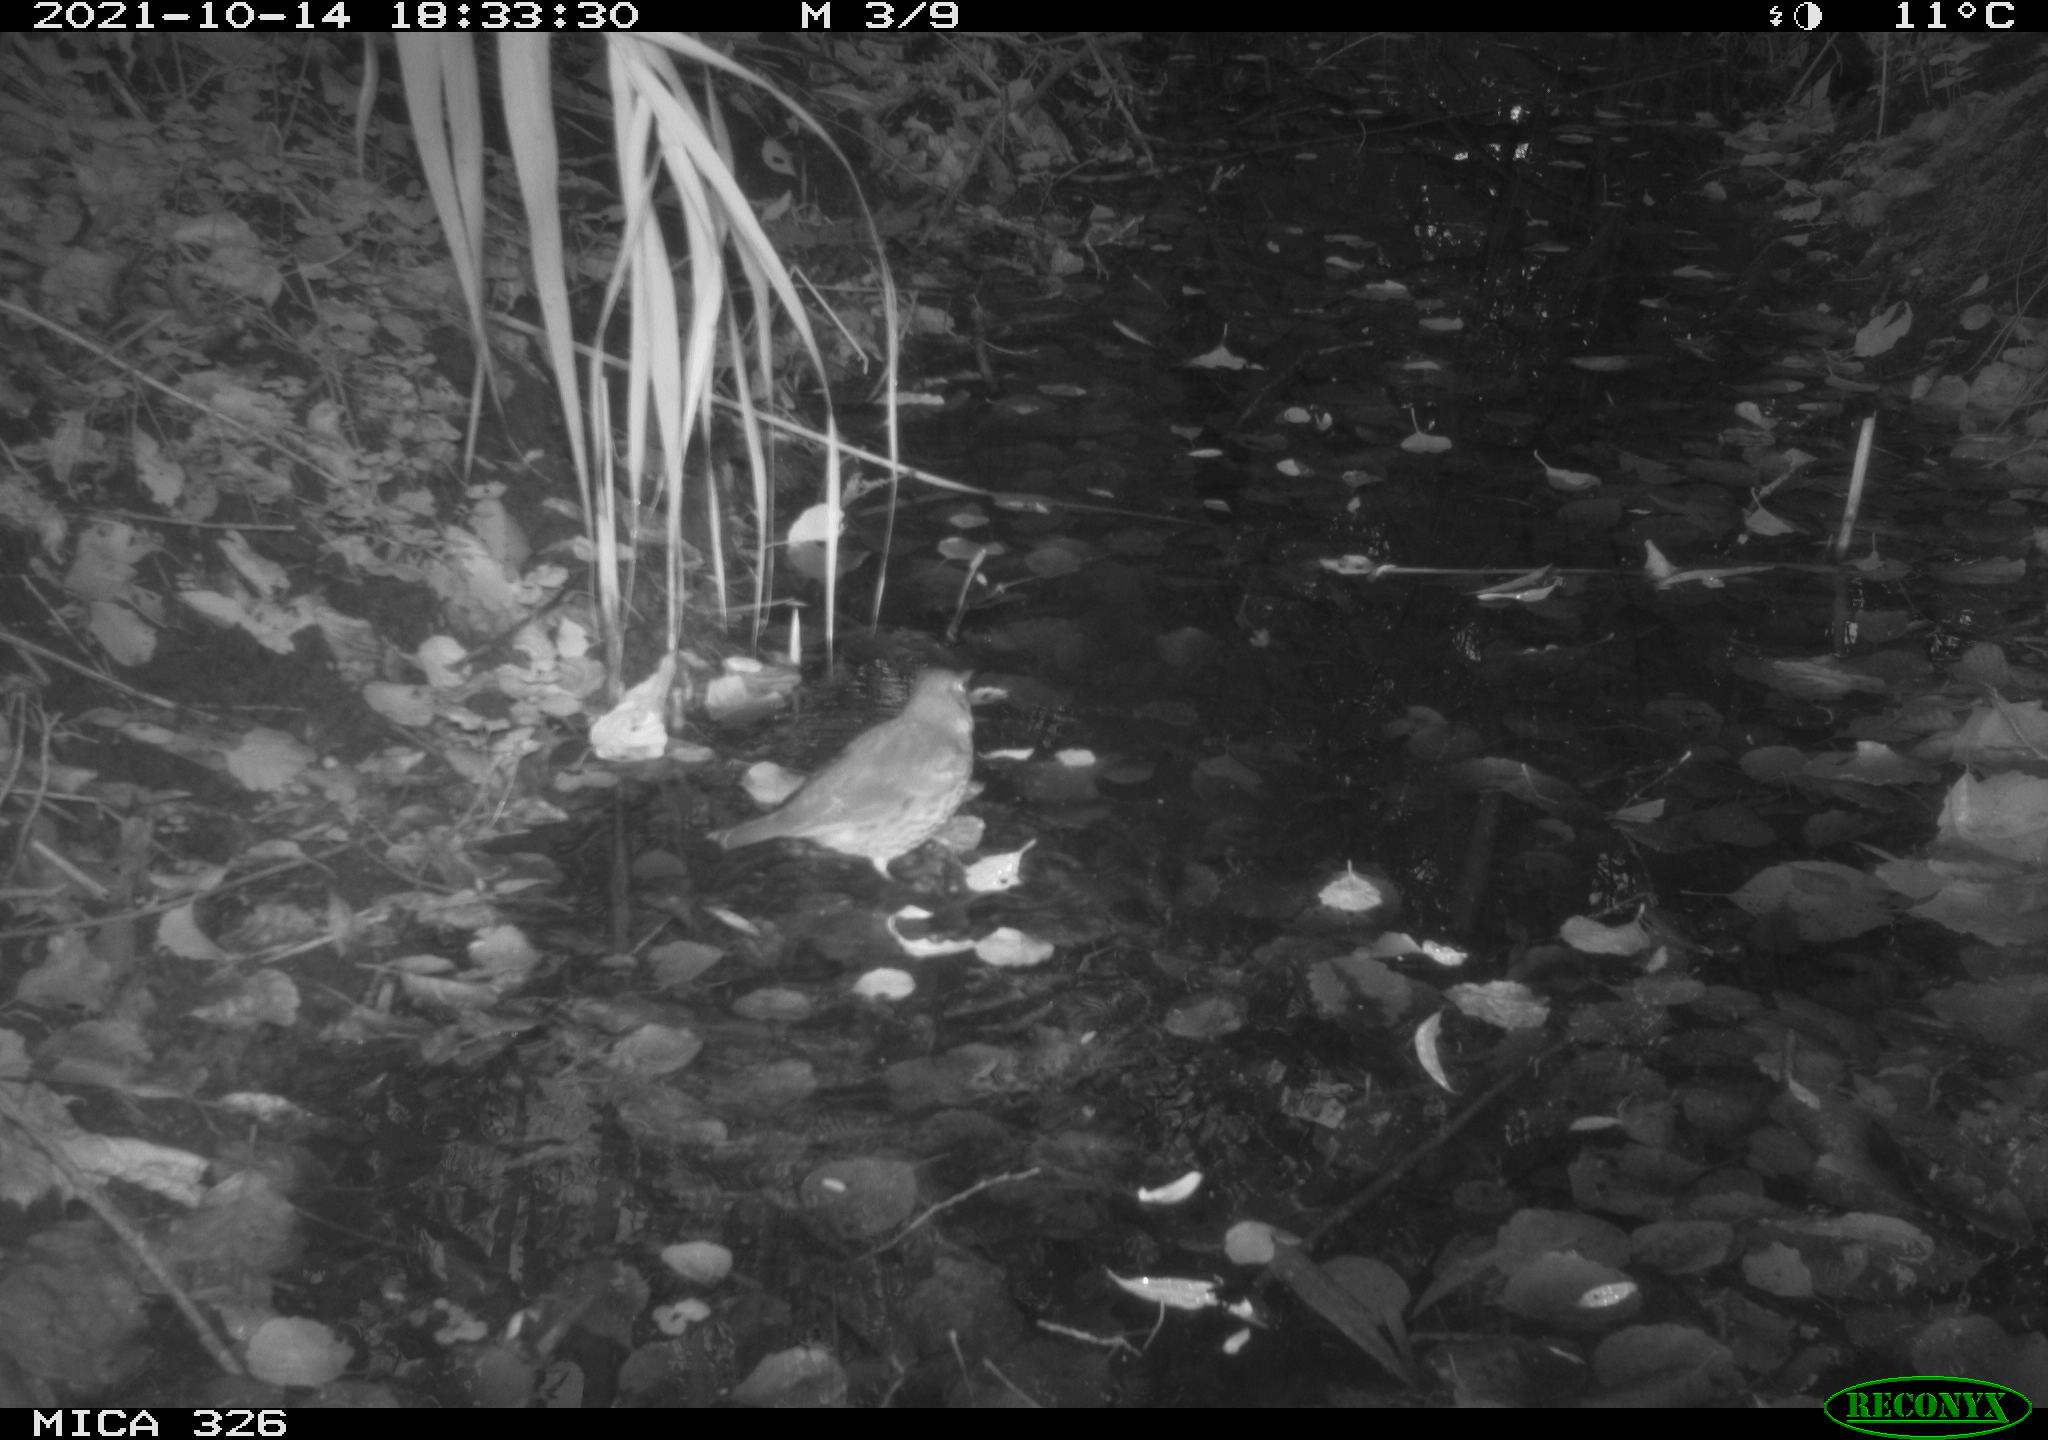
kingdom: Animalia
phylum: Chordata
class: Aves
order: Passeriformes
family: Turdidae
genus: Turdus
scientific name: Turdus philomelos
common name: Song thrush
